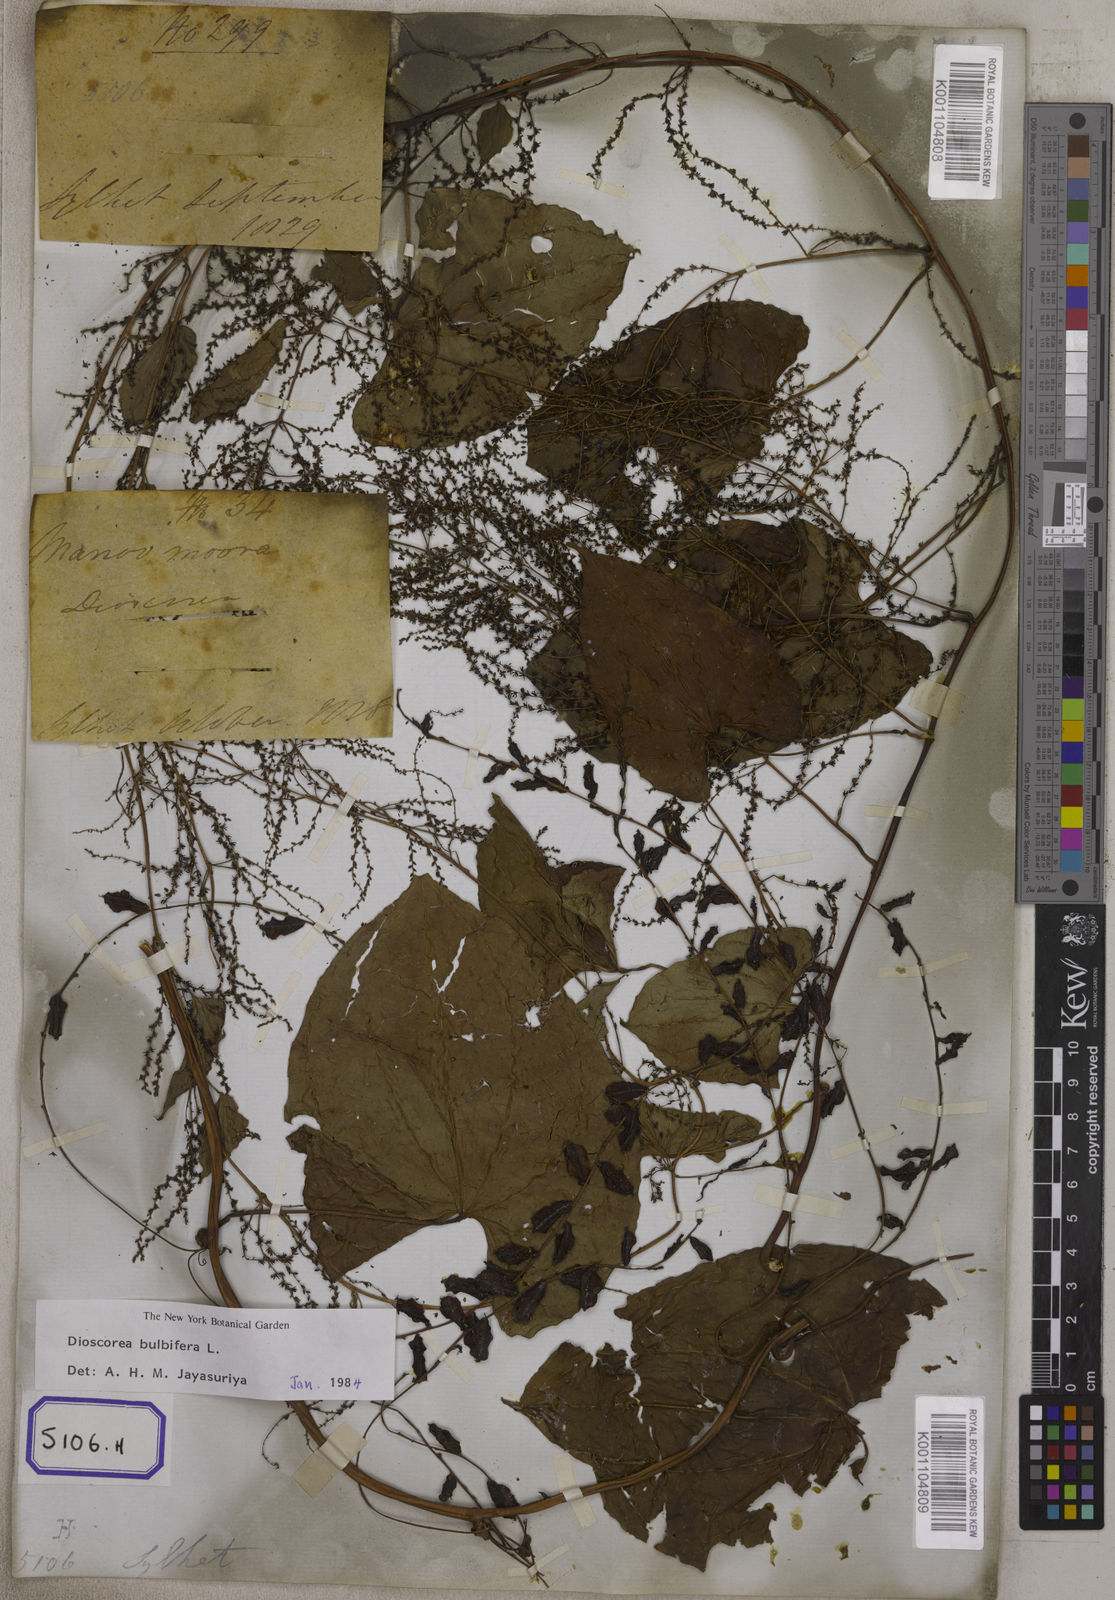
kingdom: Plantae
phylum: Tracheophyta
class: Liliopsida
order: Dioscoreales
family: Dioscoreaceae
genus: Dioscorea
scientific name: Dioscorea
